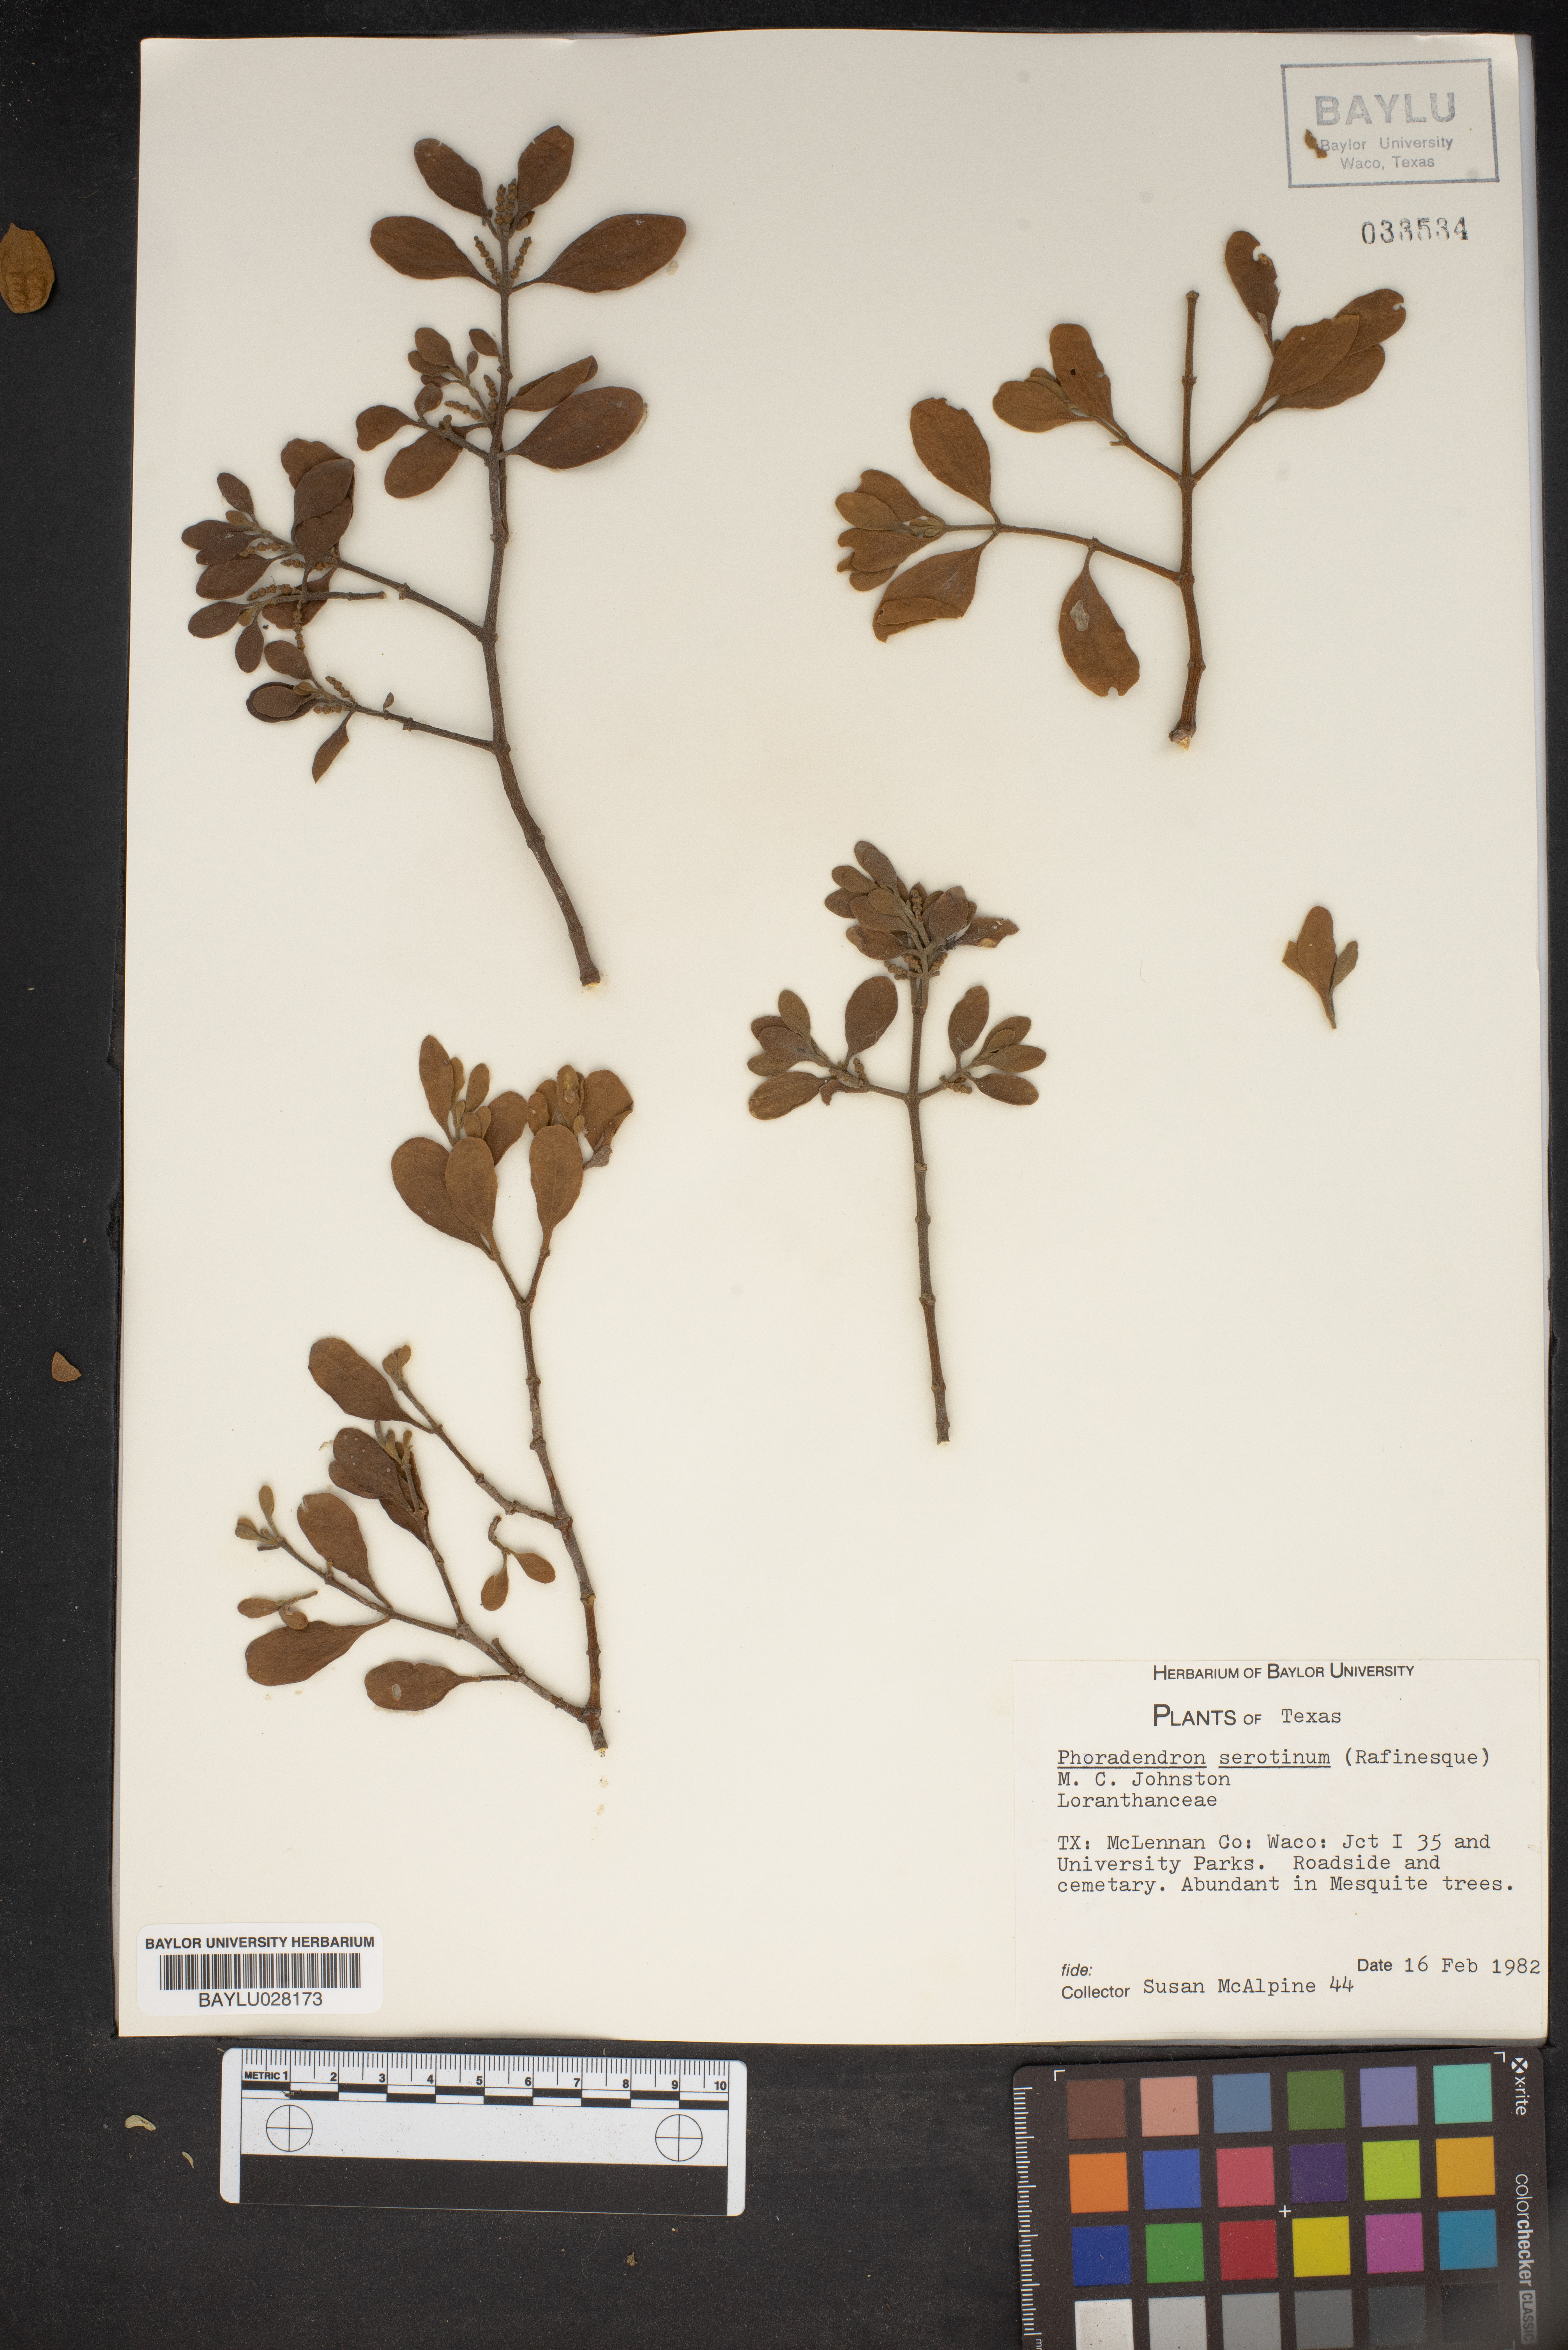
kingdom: Plantae
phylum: Tracheophyta
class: Magnoliopsida
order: Santalales
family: Viscaceae
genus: Phoradendron
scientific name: Phoradendron leucarpum
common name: Pacific mistletoe
